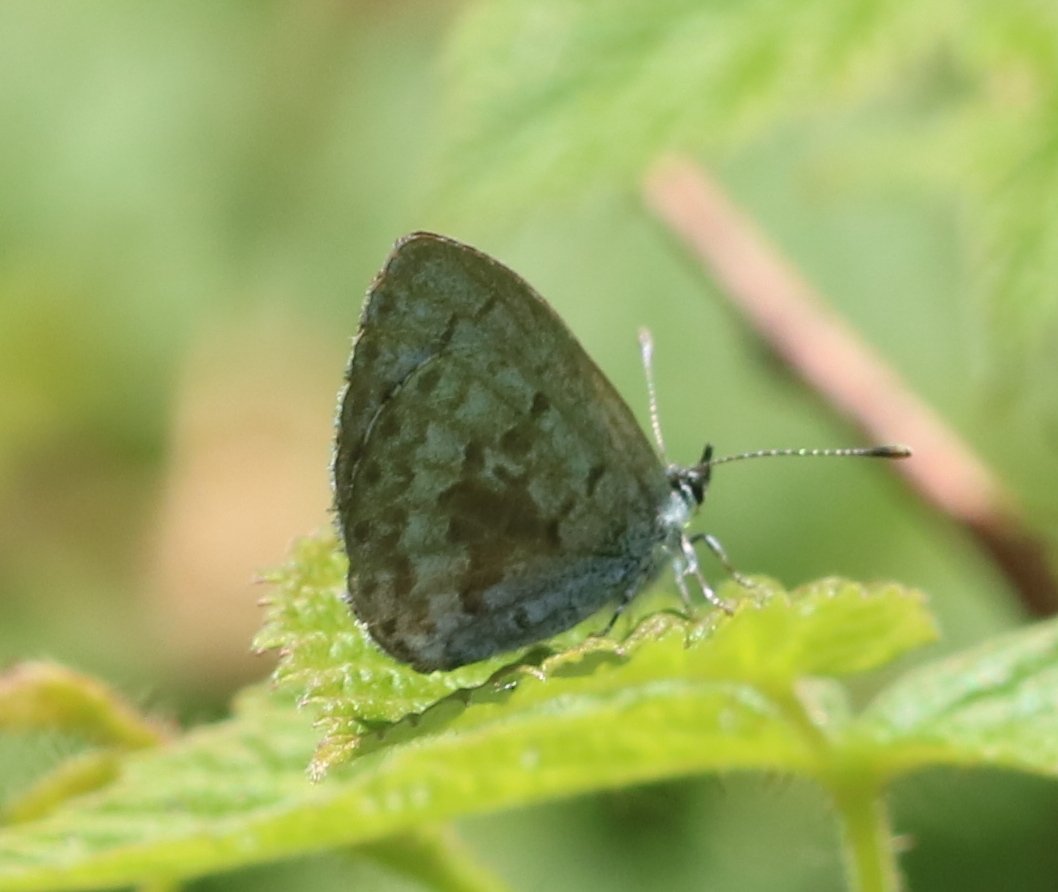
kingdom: Animalia
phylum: Arthropoda
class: Insecta
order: Lepidoptera
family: Lycaenidae
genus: Celastrina
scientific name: Celastrina lucia
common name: Northern Spring Azure
